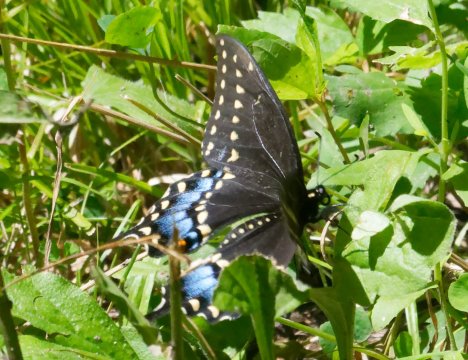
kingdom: Animalia
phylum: Arthropoda
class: Insecta
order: Lepidoptera
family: Papilionidae
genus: Papilio
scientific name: Papilio polyxenes
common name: Black Swallowtail
